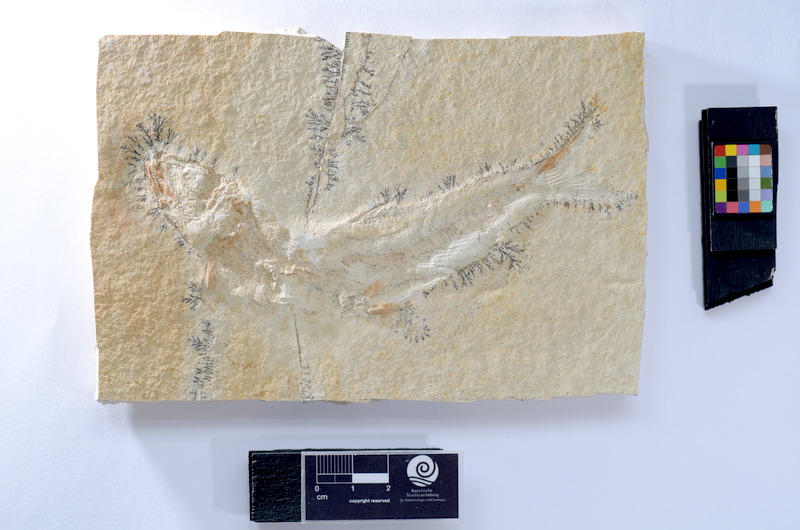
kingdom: Animalia
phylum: Chordata
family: Ascalaboidae
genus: Tharsis
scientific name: Tharsis dubius
